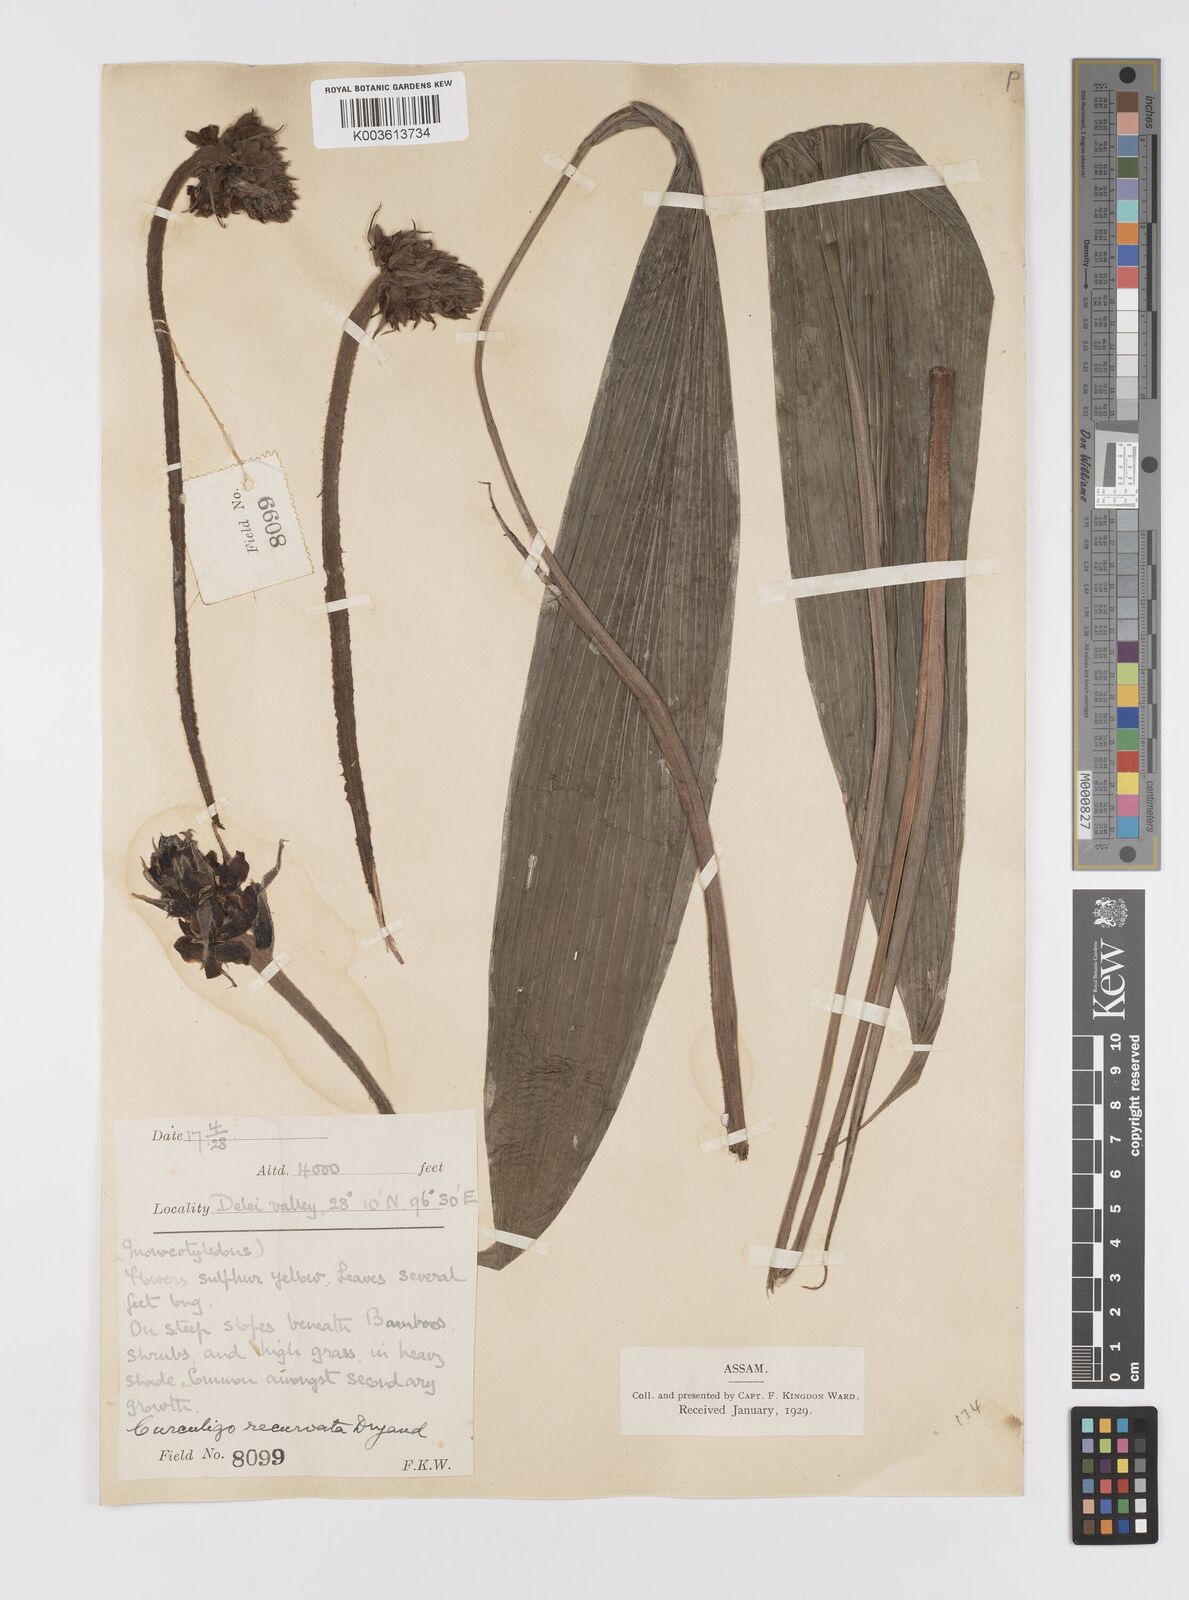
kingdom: Plantae
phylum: Tracheophyta
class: Liliopsida
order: Asparagales
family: Hypoxidaceae
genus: Curculigo
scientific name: Curculigo capitulata
